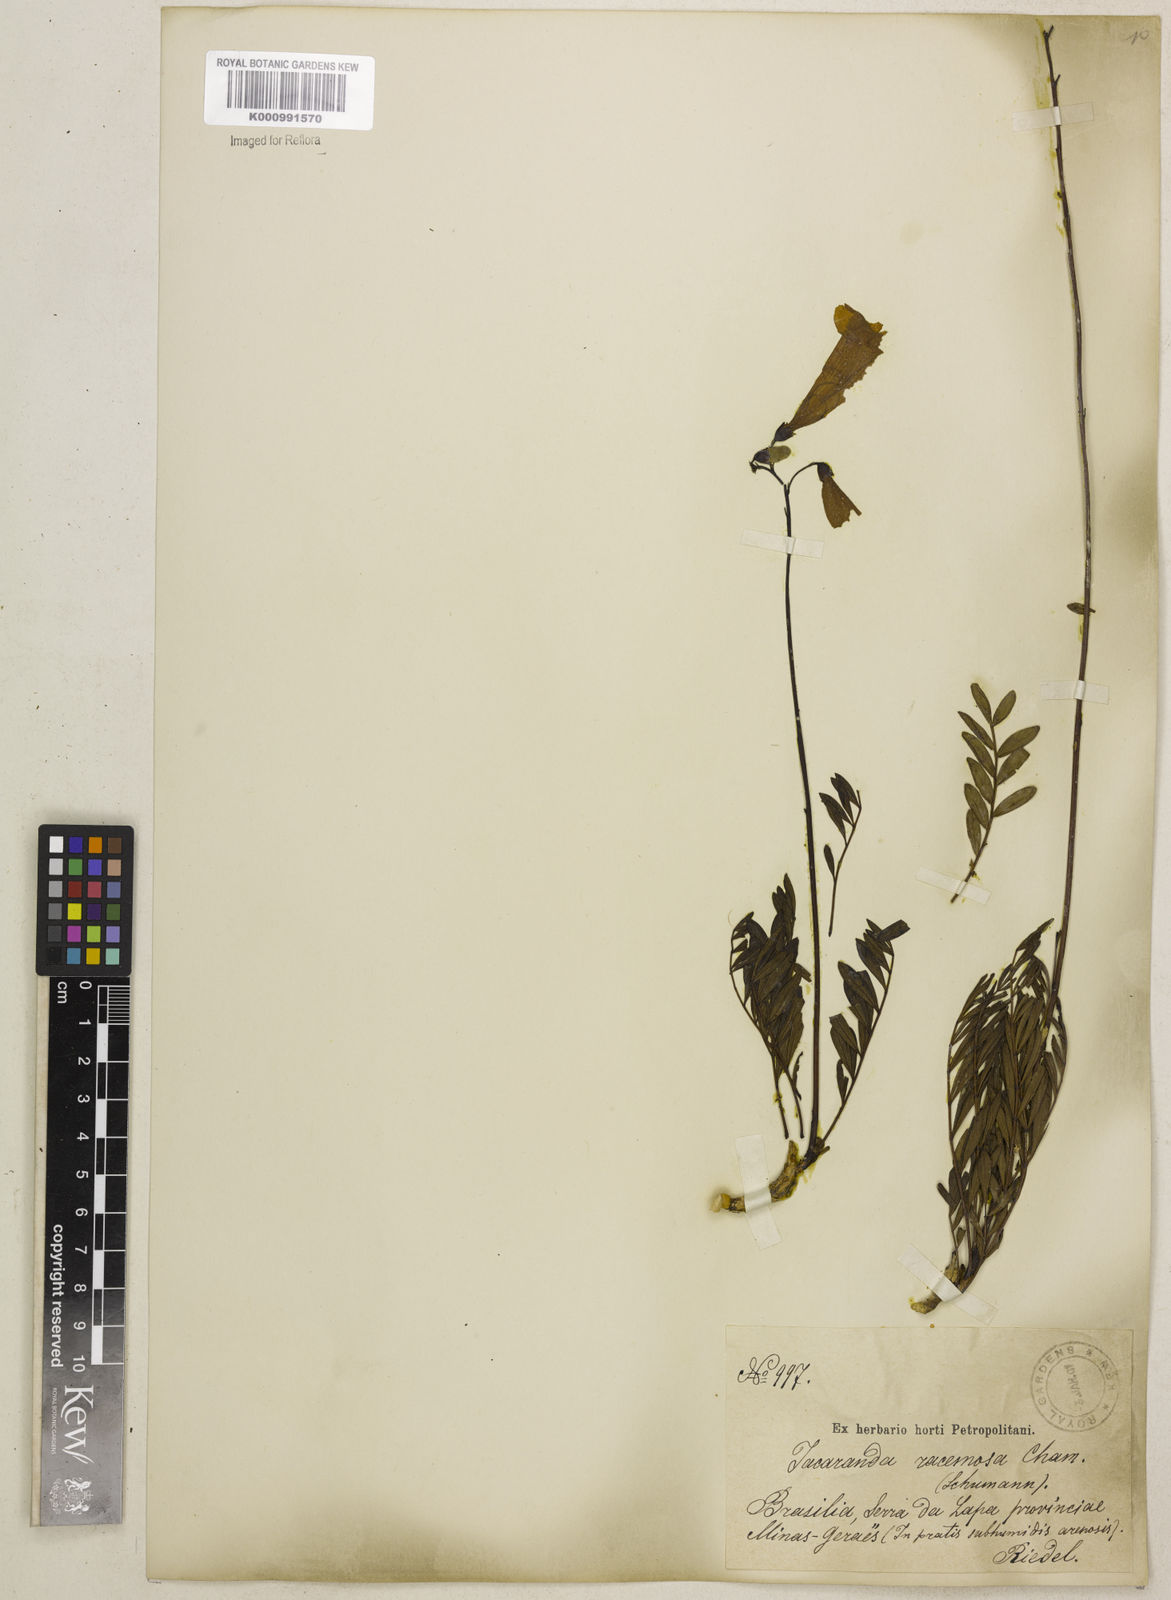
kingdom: Plantae
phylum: Tracheophyta
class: Magnoliopsida
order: Lamiales
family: Bignoniaceae
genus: Jacaranda
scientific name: Jacaranda racemosa
